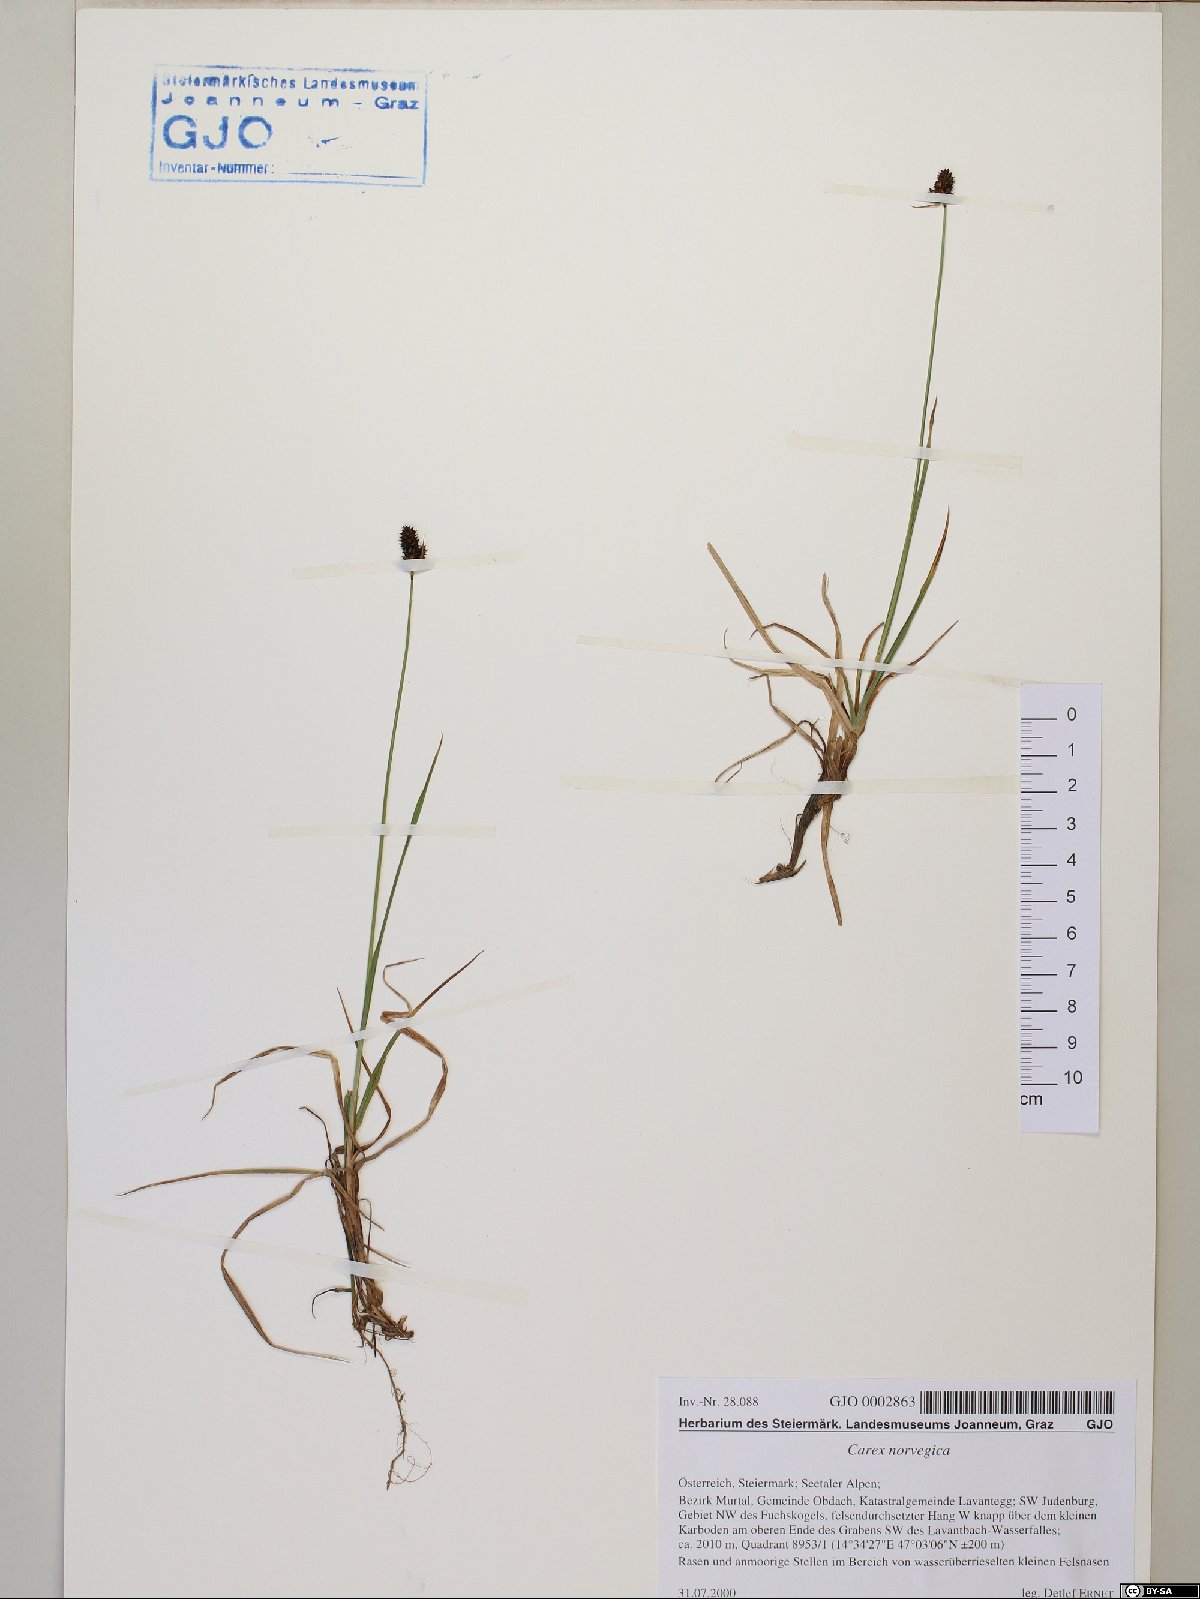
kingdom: Plantae
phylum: Tracheophyta
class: Liliopsida
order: Poales
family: Cyperaceae
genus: Carex
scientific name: Carex norvegica
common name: Close-headed alpine-sedge
